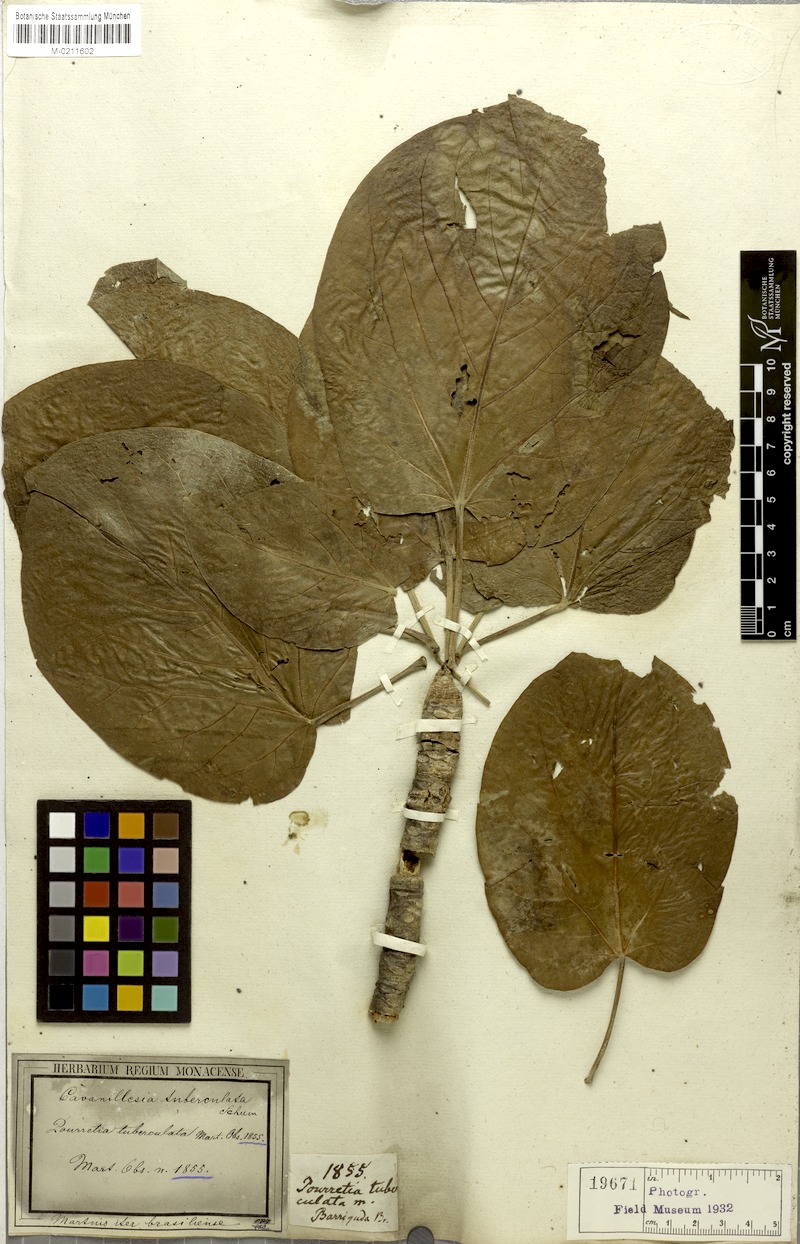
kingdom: Plantae
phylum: Tracheophyta
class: Magnoliopsida
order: Malvales
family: Malvaceae
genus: Cavanillesia
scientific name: Cavanillesia umbellata
